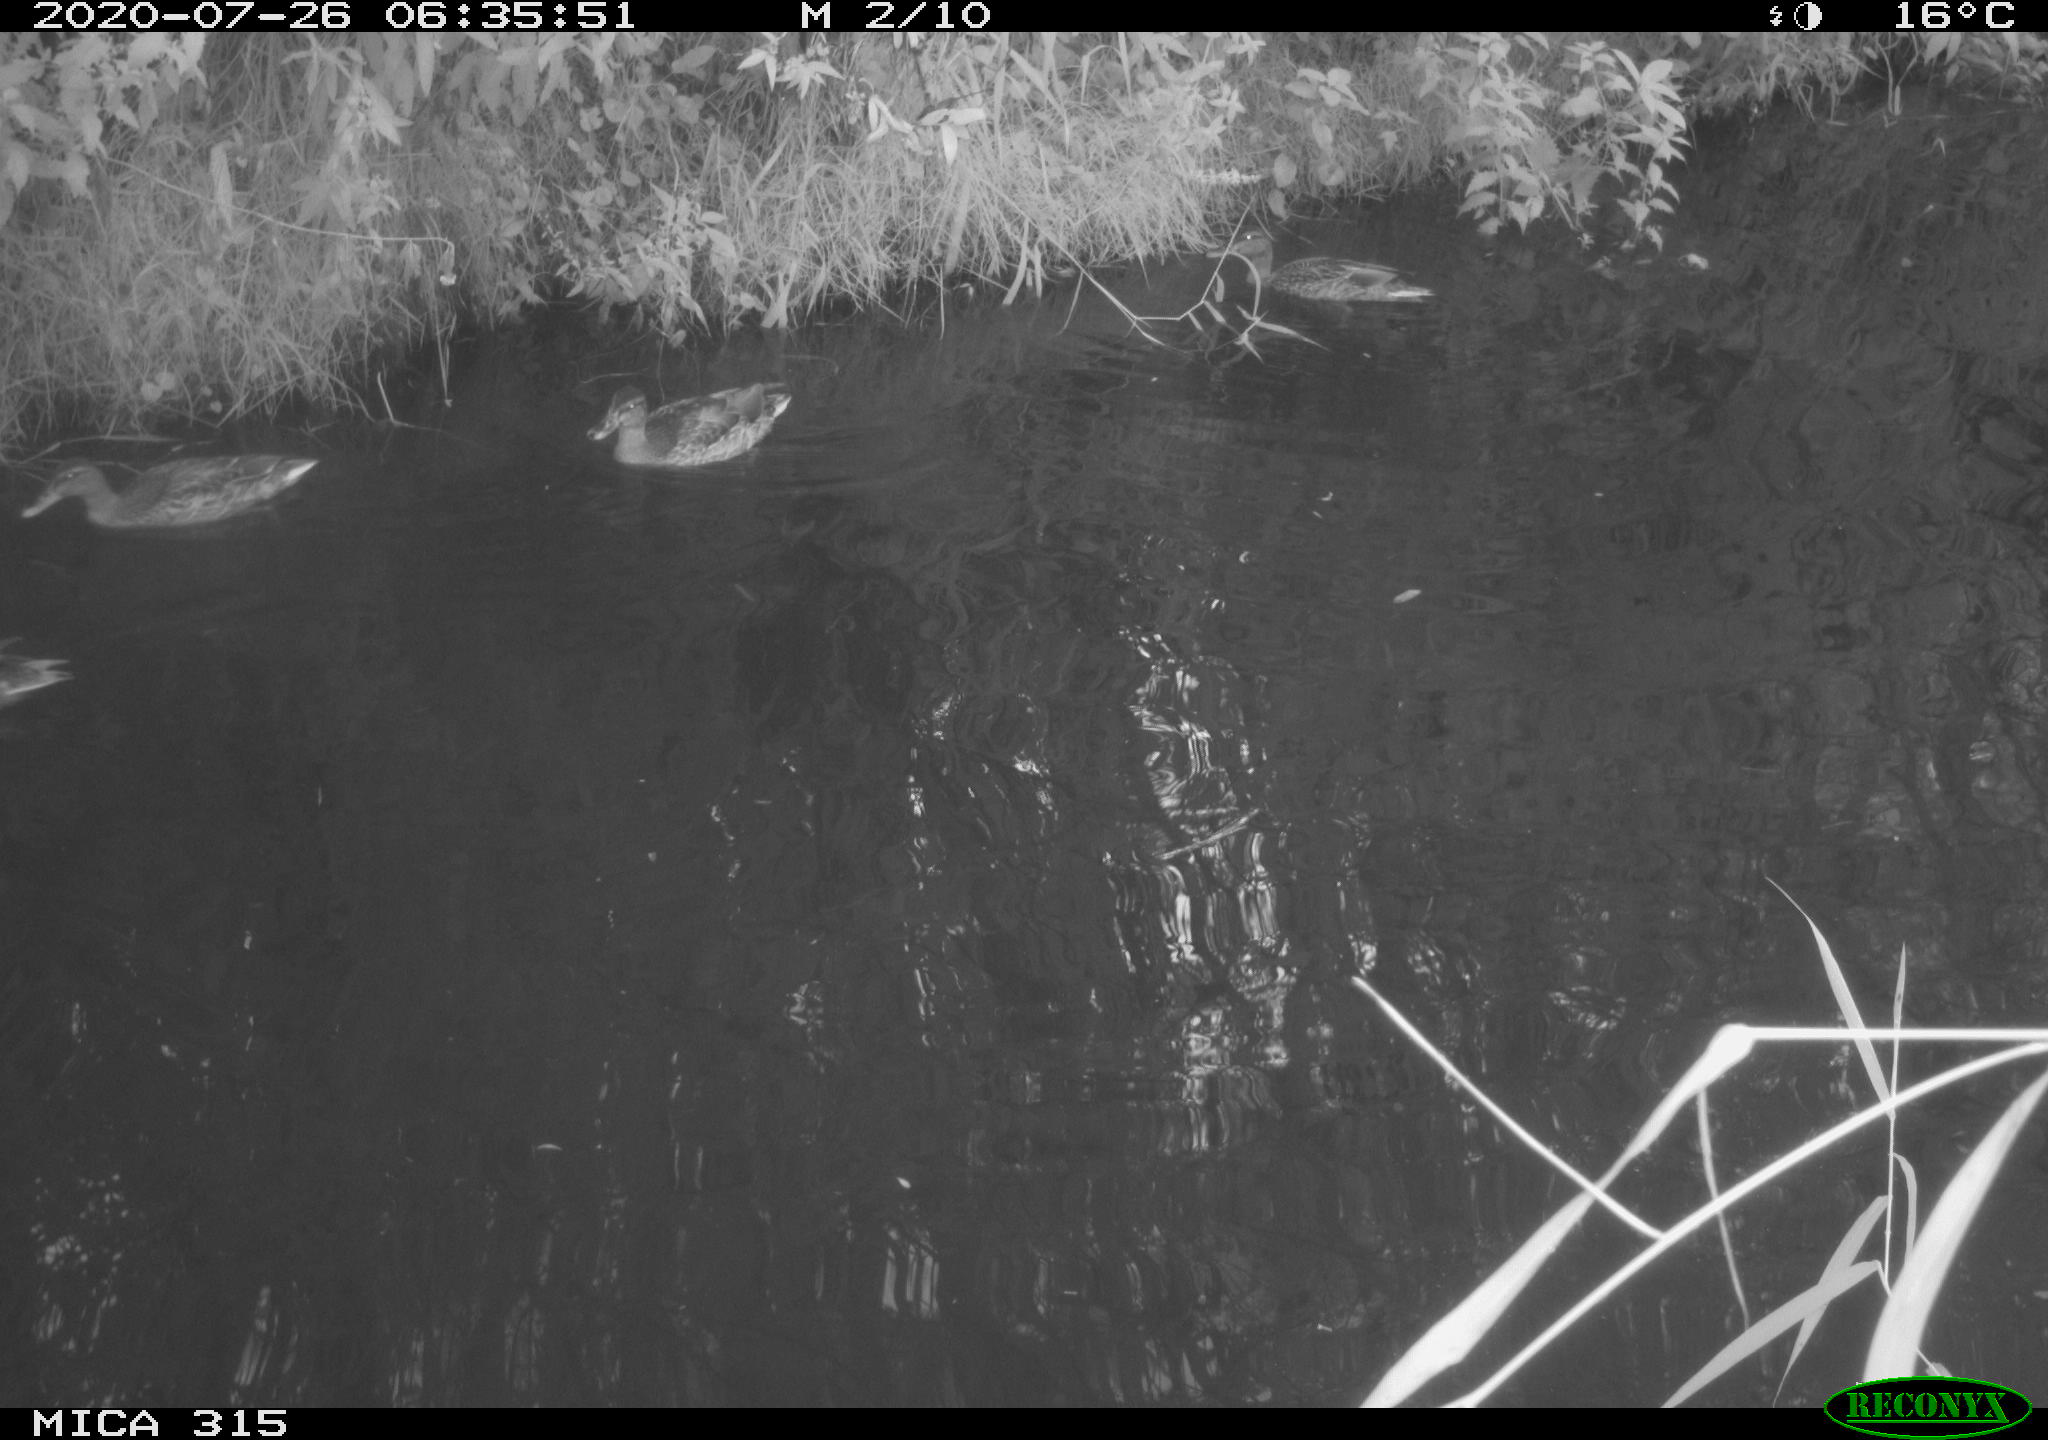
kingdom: Animalia
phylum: Chordata
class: Aves
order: Anseriformes
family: Anatidae
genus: Anas
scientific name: Anas platyrhynchos
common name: Mallard
